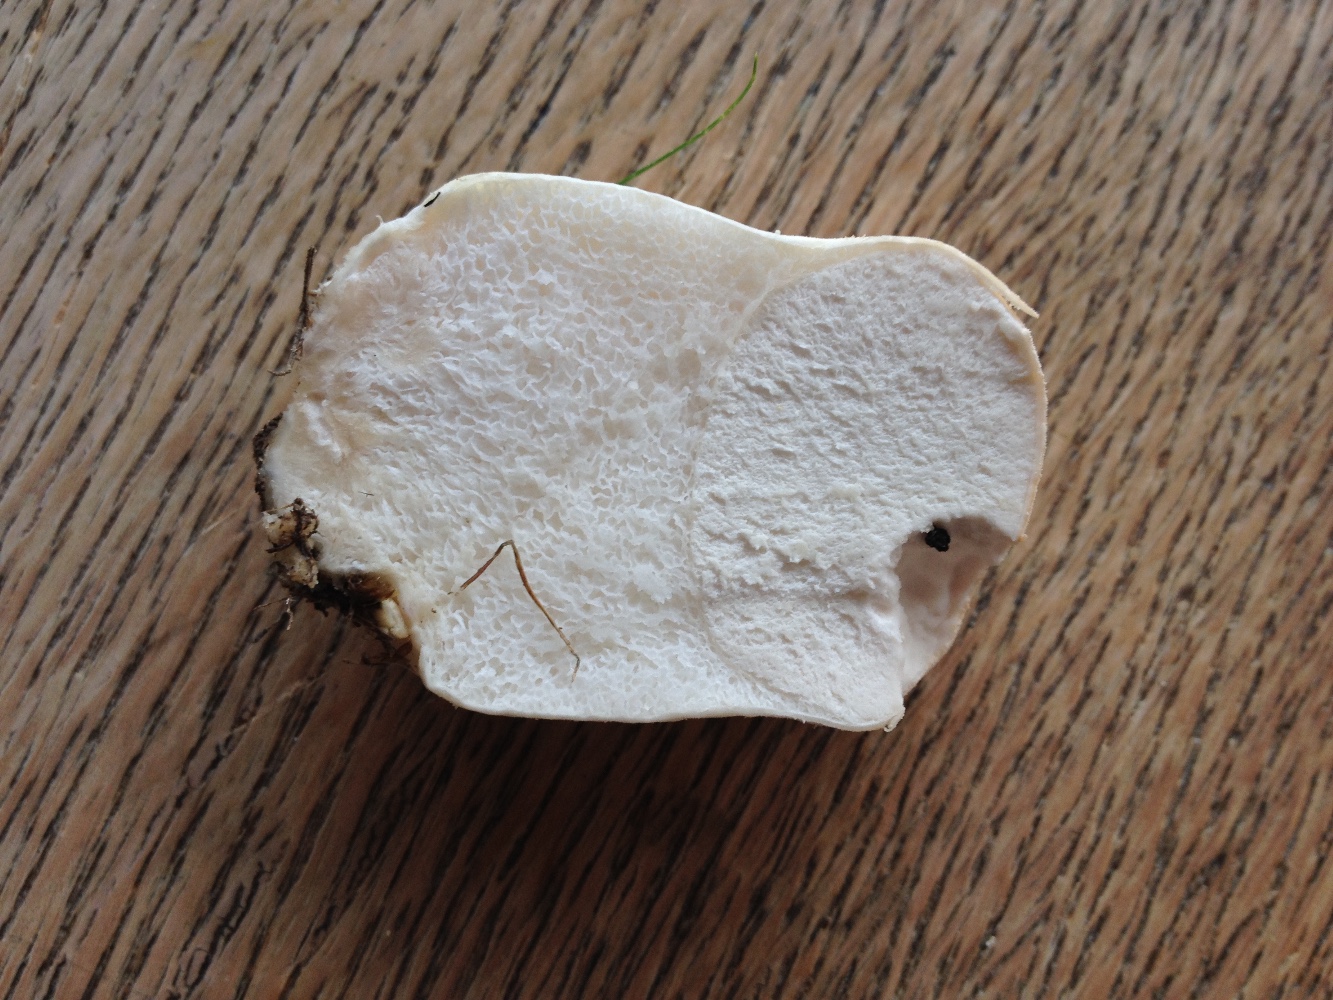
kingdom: Fungi
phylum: Basidiomycota
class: Agaricomycetes
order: Agaricales
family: Lycoperdaceae
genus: Lycoperdon
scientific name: Lycoperdon pratense
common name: flad støvbold
